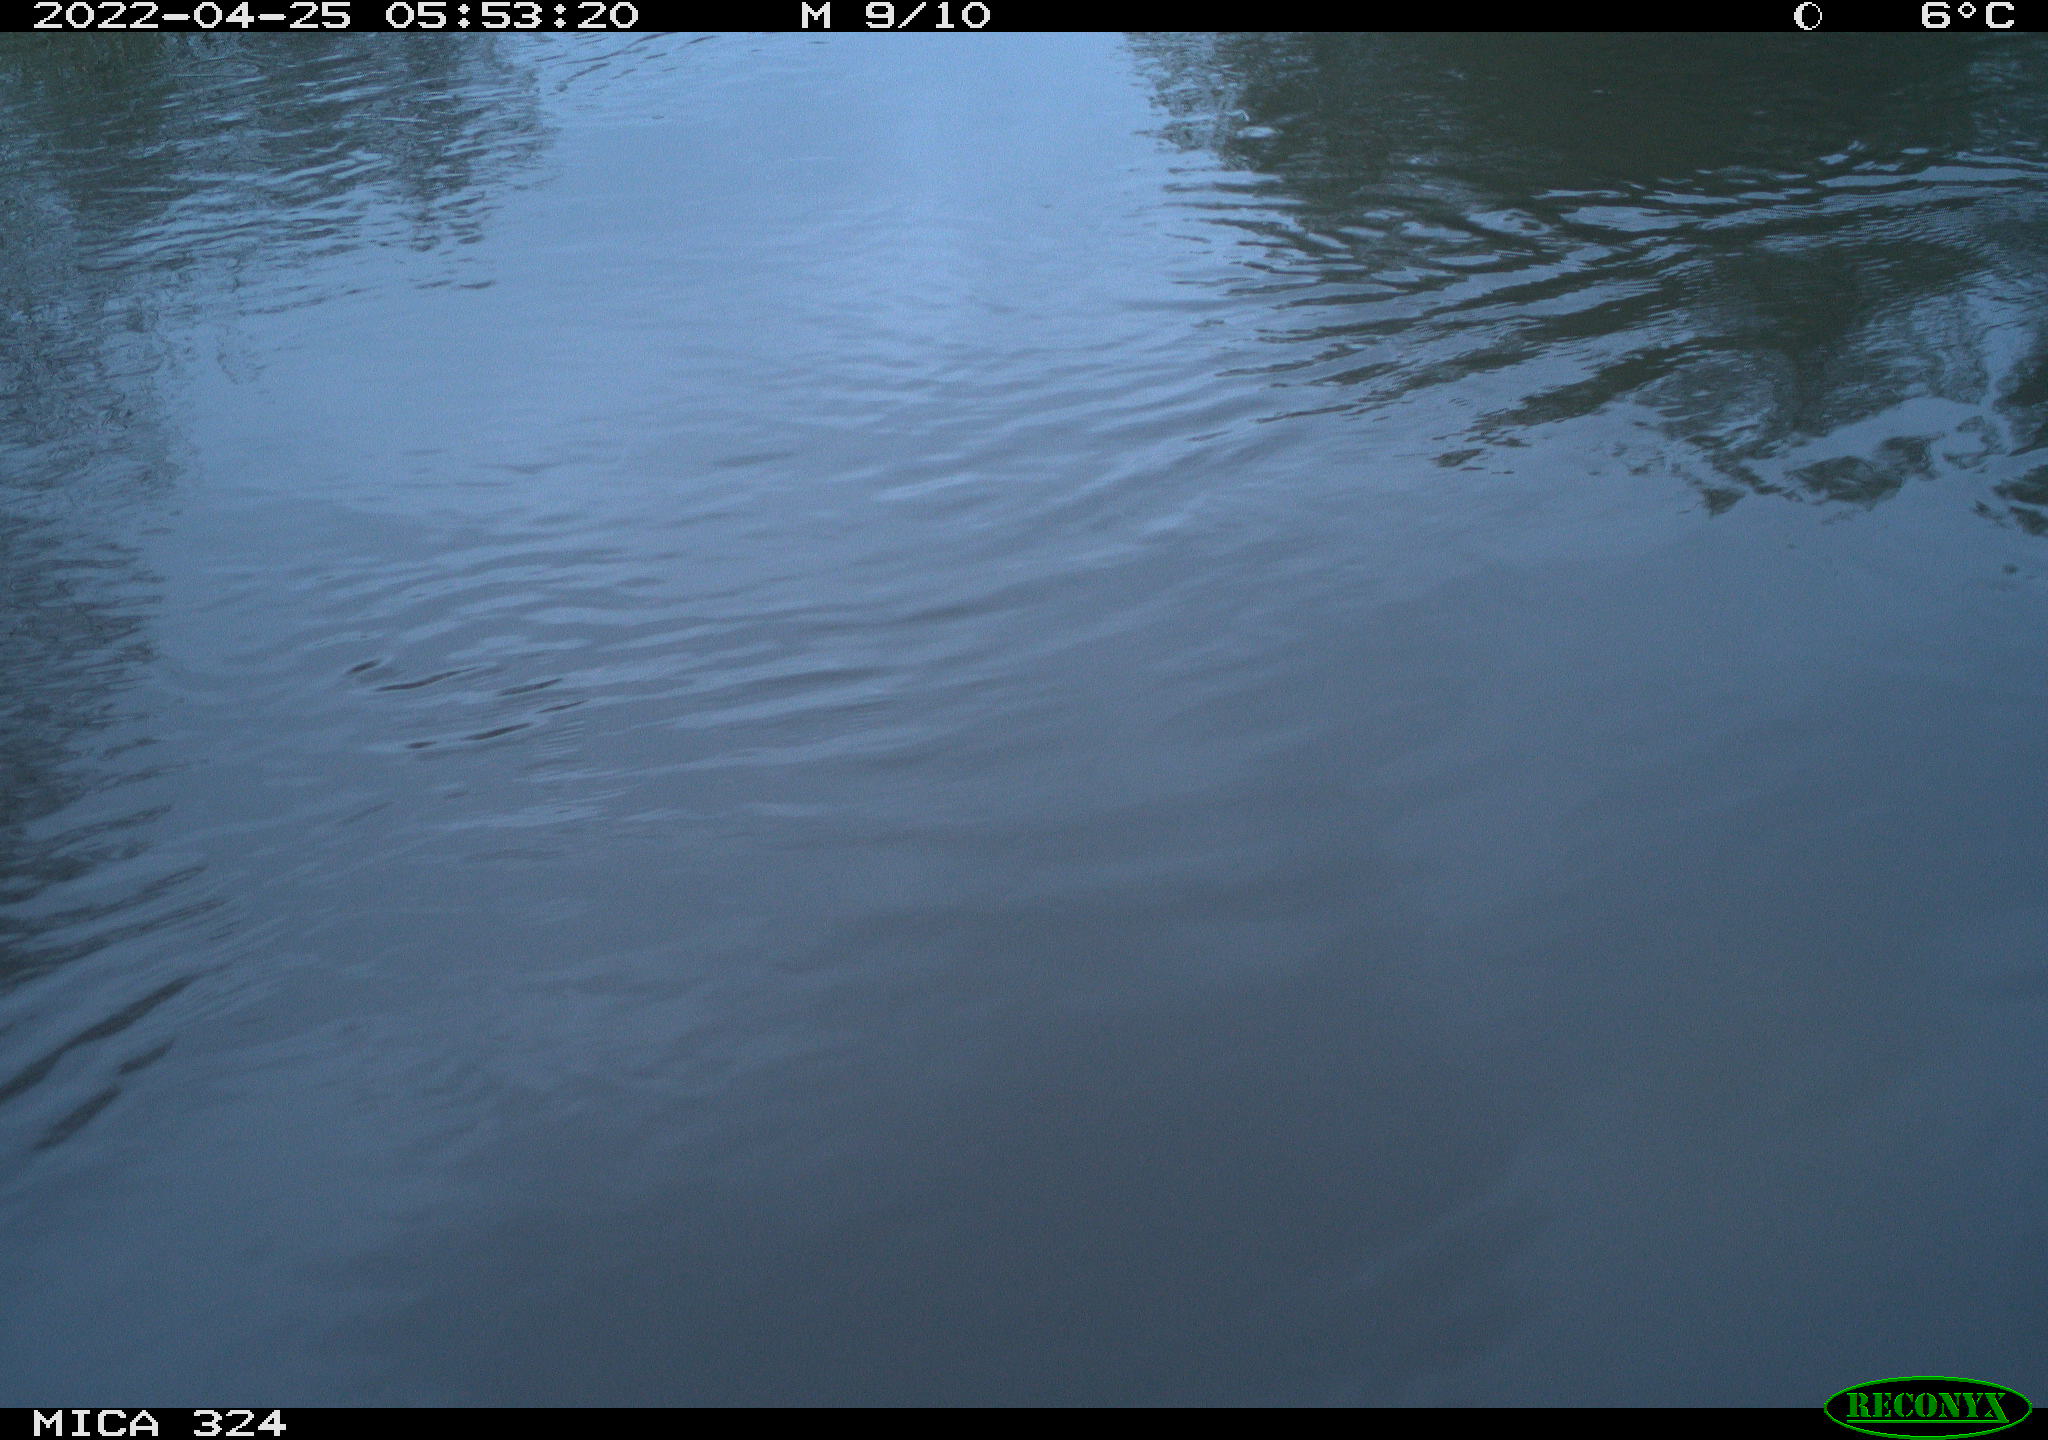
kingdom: Animalia
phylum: Chordata
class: Aves
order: Gruiformes
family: Rallidae
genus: Gallinula
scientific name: Gallinula chloropus
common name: Common moorhen
